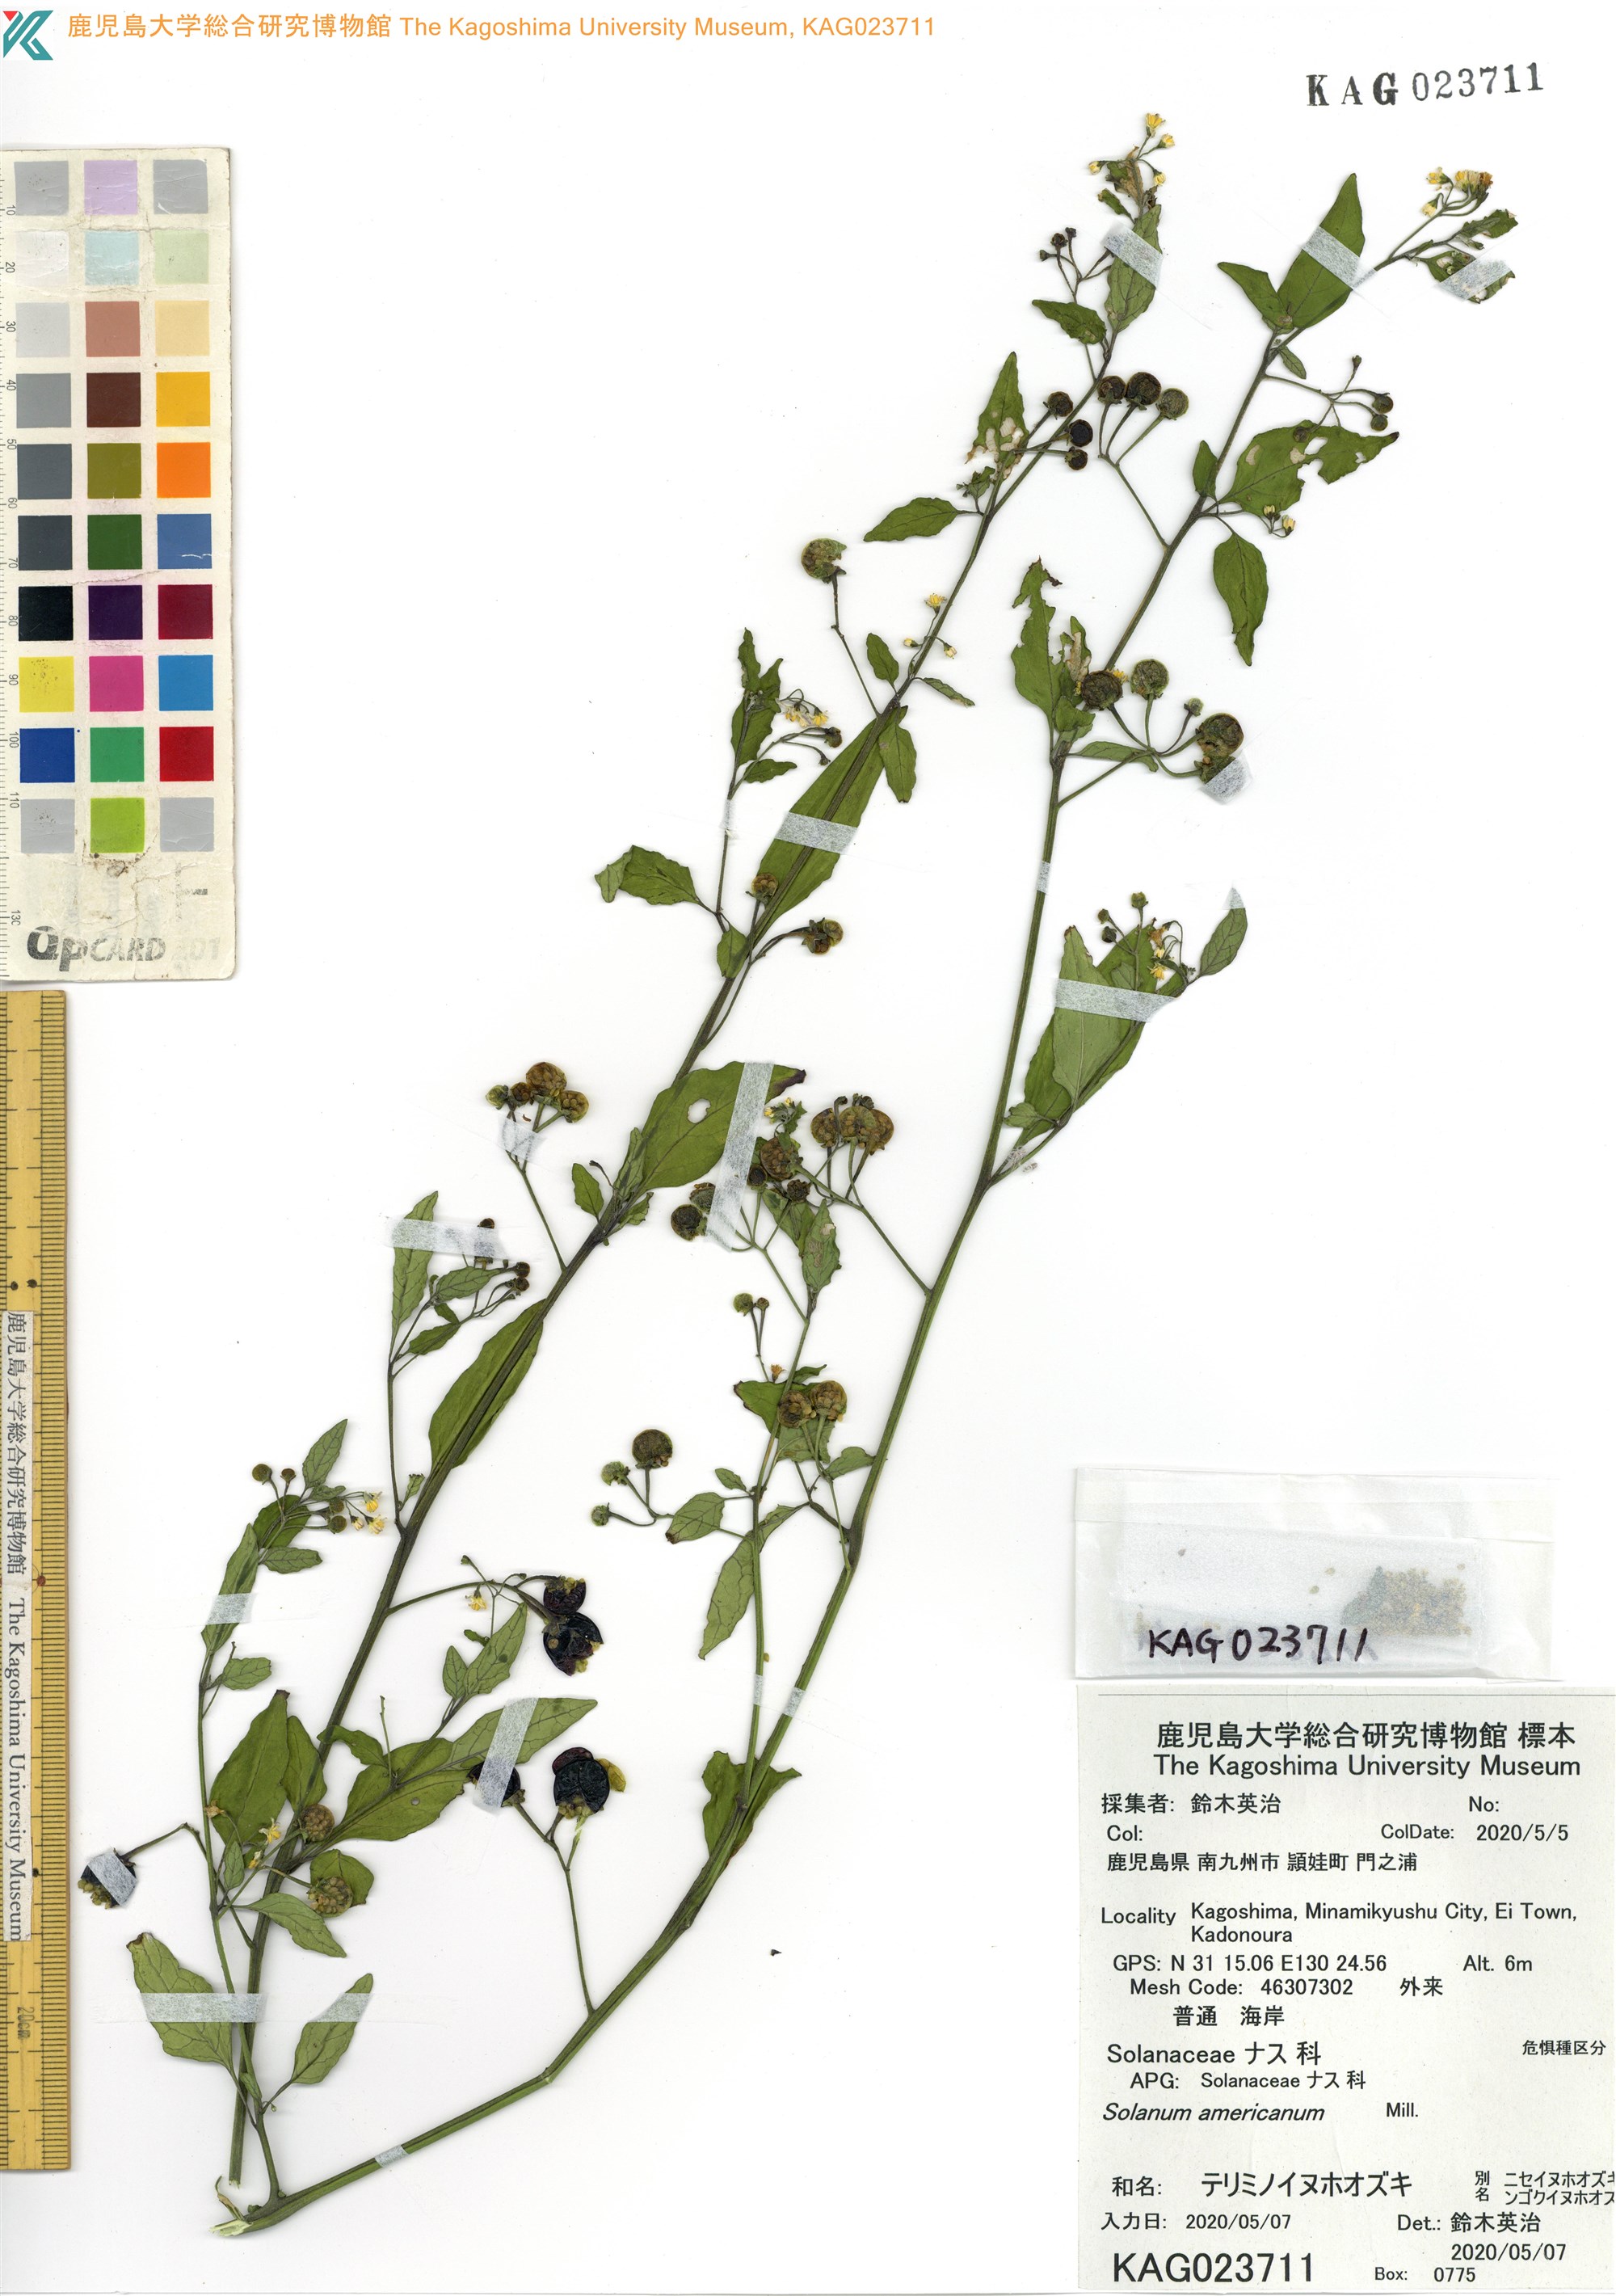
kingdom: Plantae
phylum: Tracheophyta
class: Magnoliopsida
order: Solanales
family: Solanaceae
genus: Solanum
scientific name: Solanum americanum
